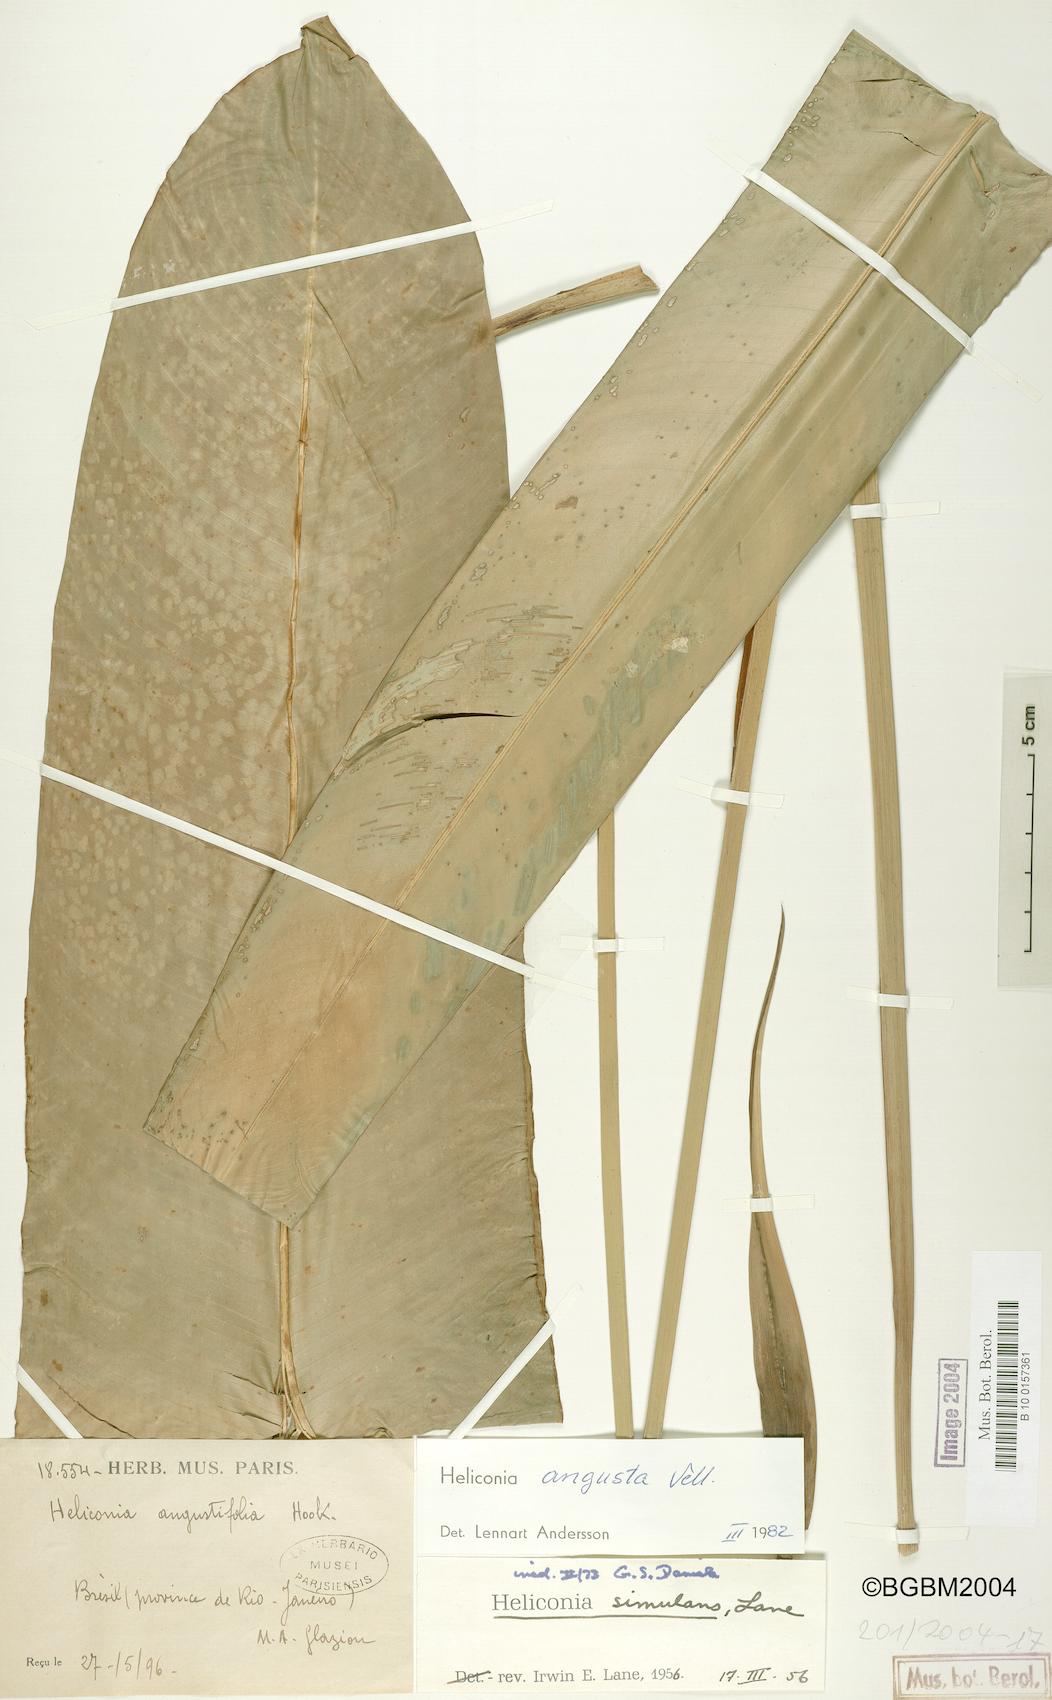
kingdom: Plantae
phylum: Tracheophyta
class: Liliopsida
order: Zingiberales
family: Heliconiaceae
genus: Heliconia
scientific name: Heliconia angusta
